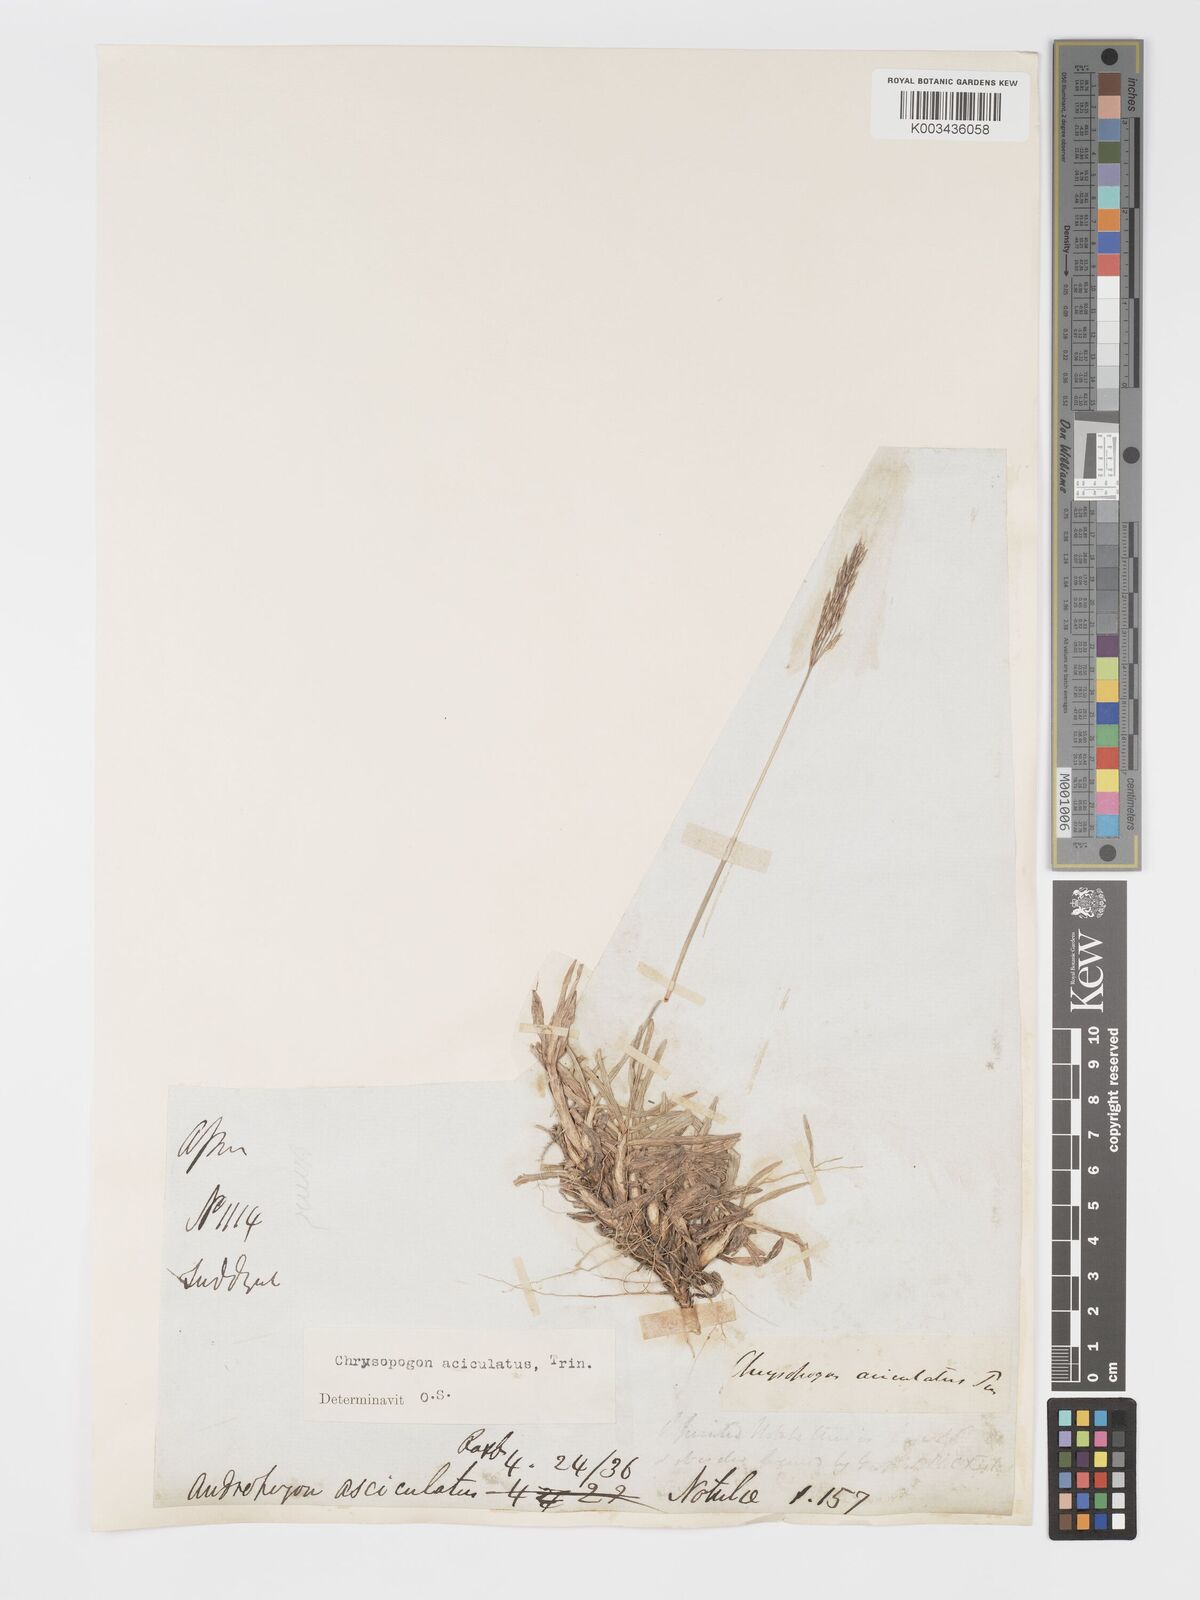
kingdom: Plantae
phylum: Tracheophyta
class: Liliopsida
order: Poales
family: Poaceae
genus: Chrysopogon
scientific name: Chrysopogon aciculatus
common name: Pilipiliula
